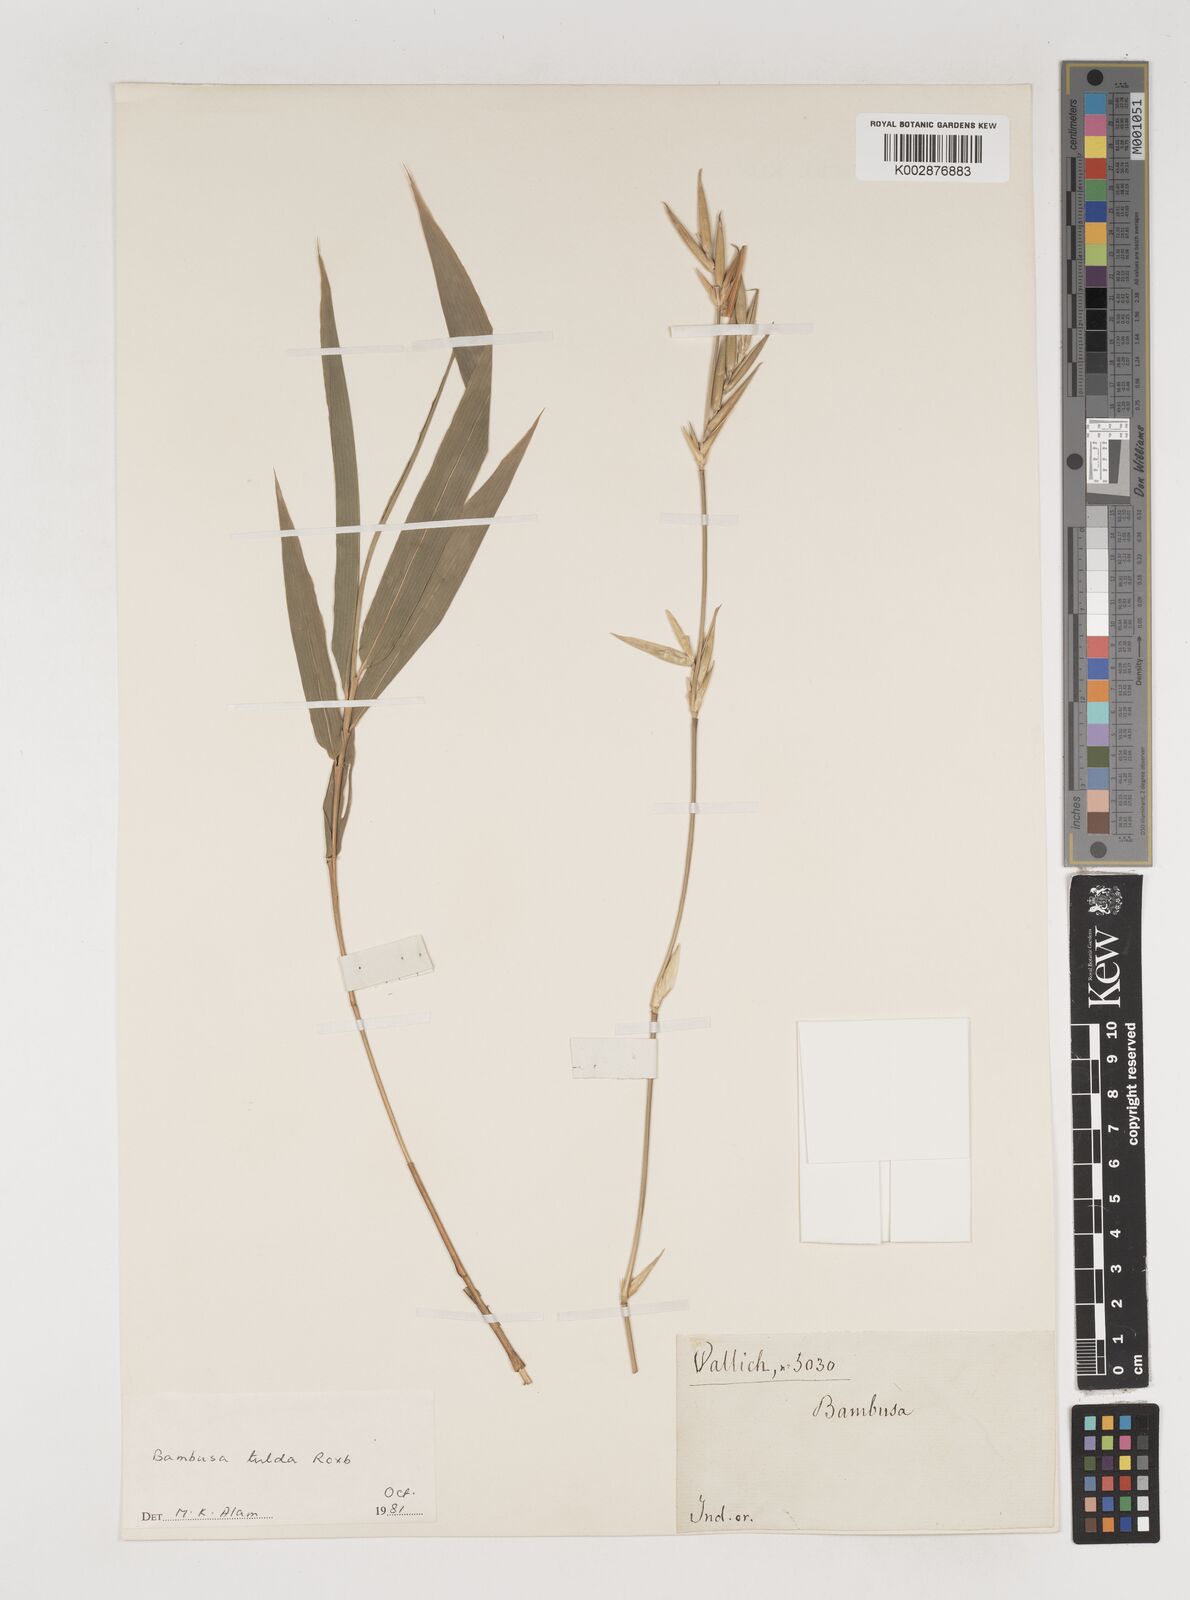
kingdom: Plantae
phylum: Tracheophyta
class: Liliopsida
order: Poales
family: Poaceae
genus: Bambusa
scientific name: Bambusa tuldoides
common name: Verdant bamboo
